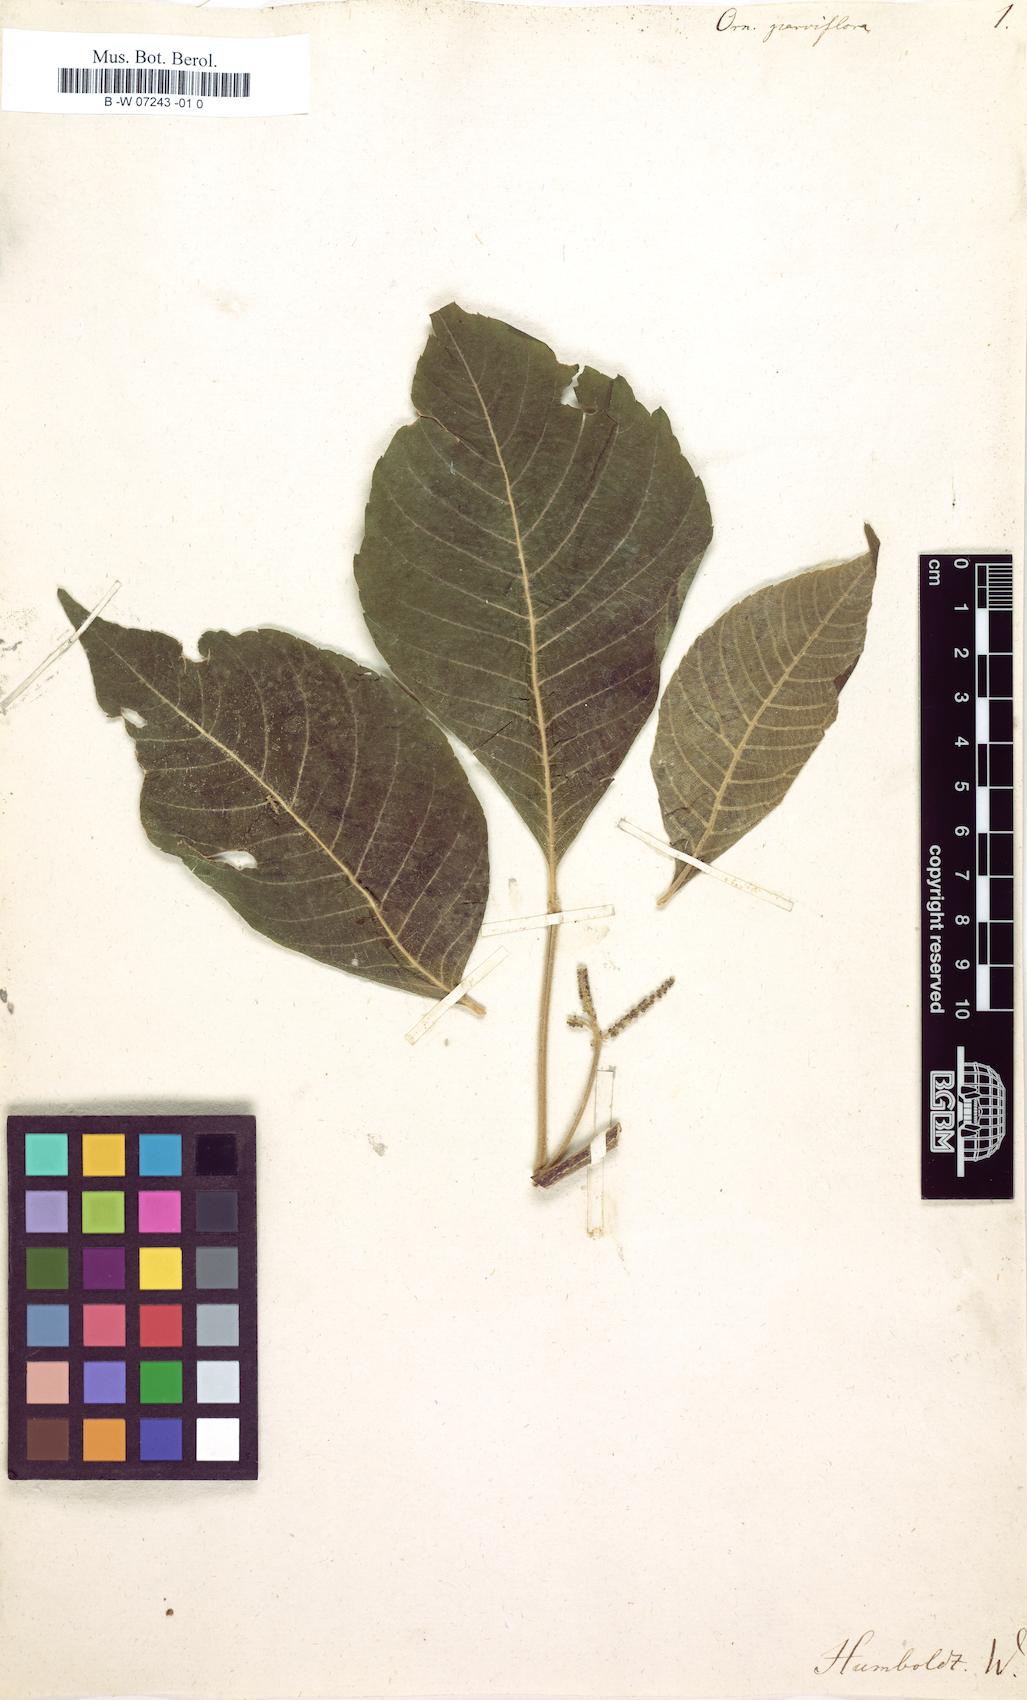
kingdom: Plantae
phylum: Tracheophyta
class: Magnoliopsida
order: Sapindales
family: Sapindaceae
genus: Allophylus
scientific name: Allophylus
